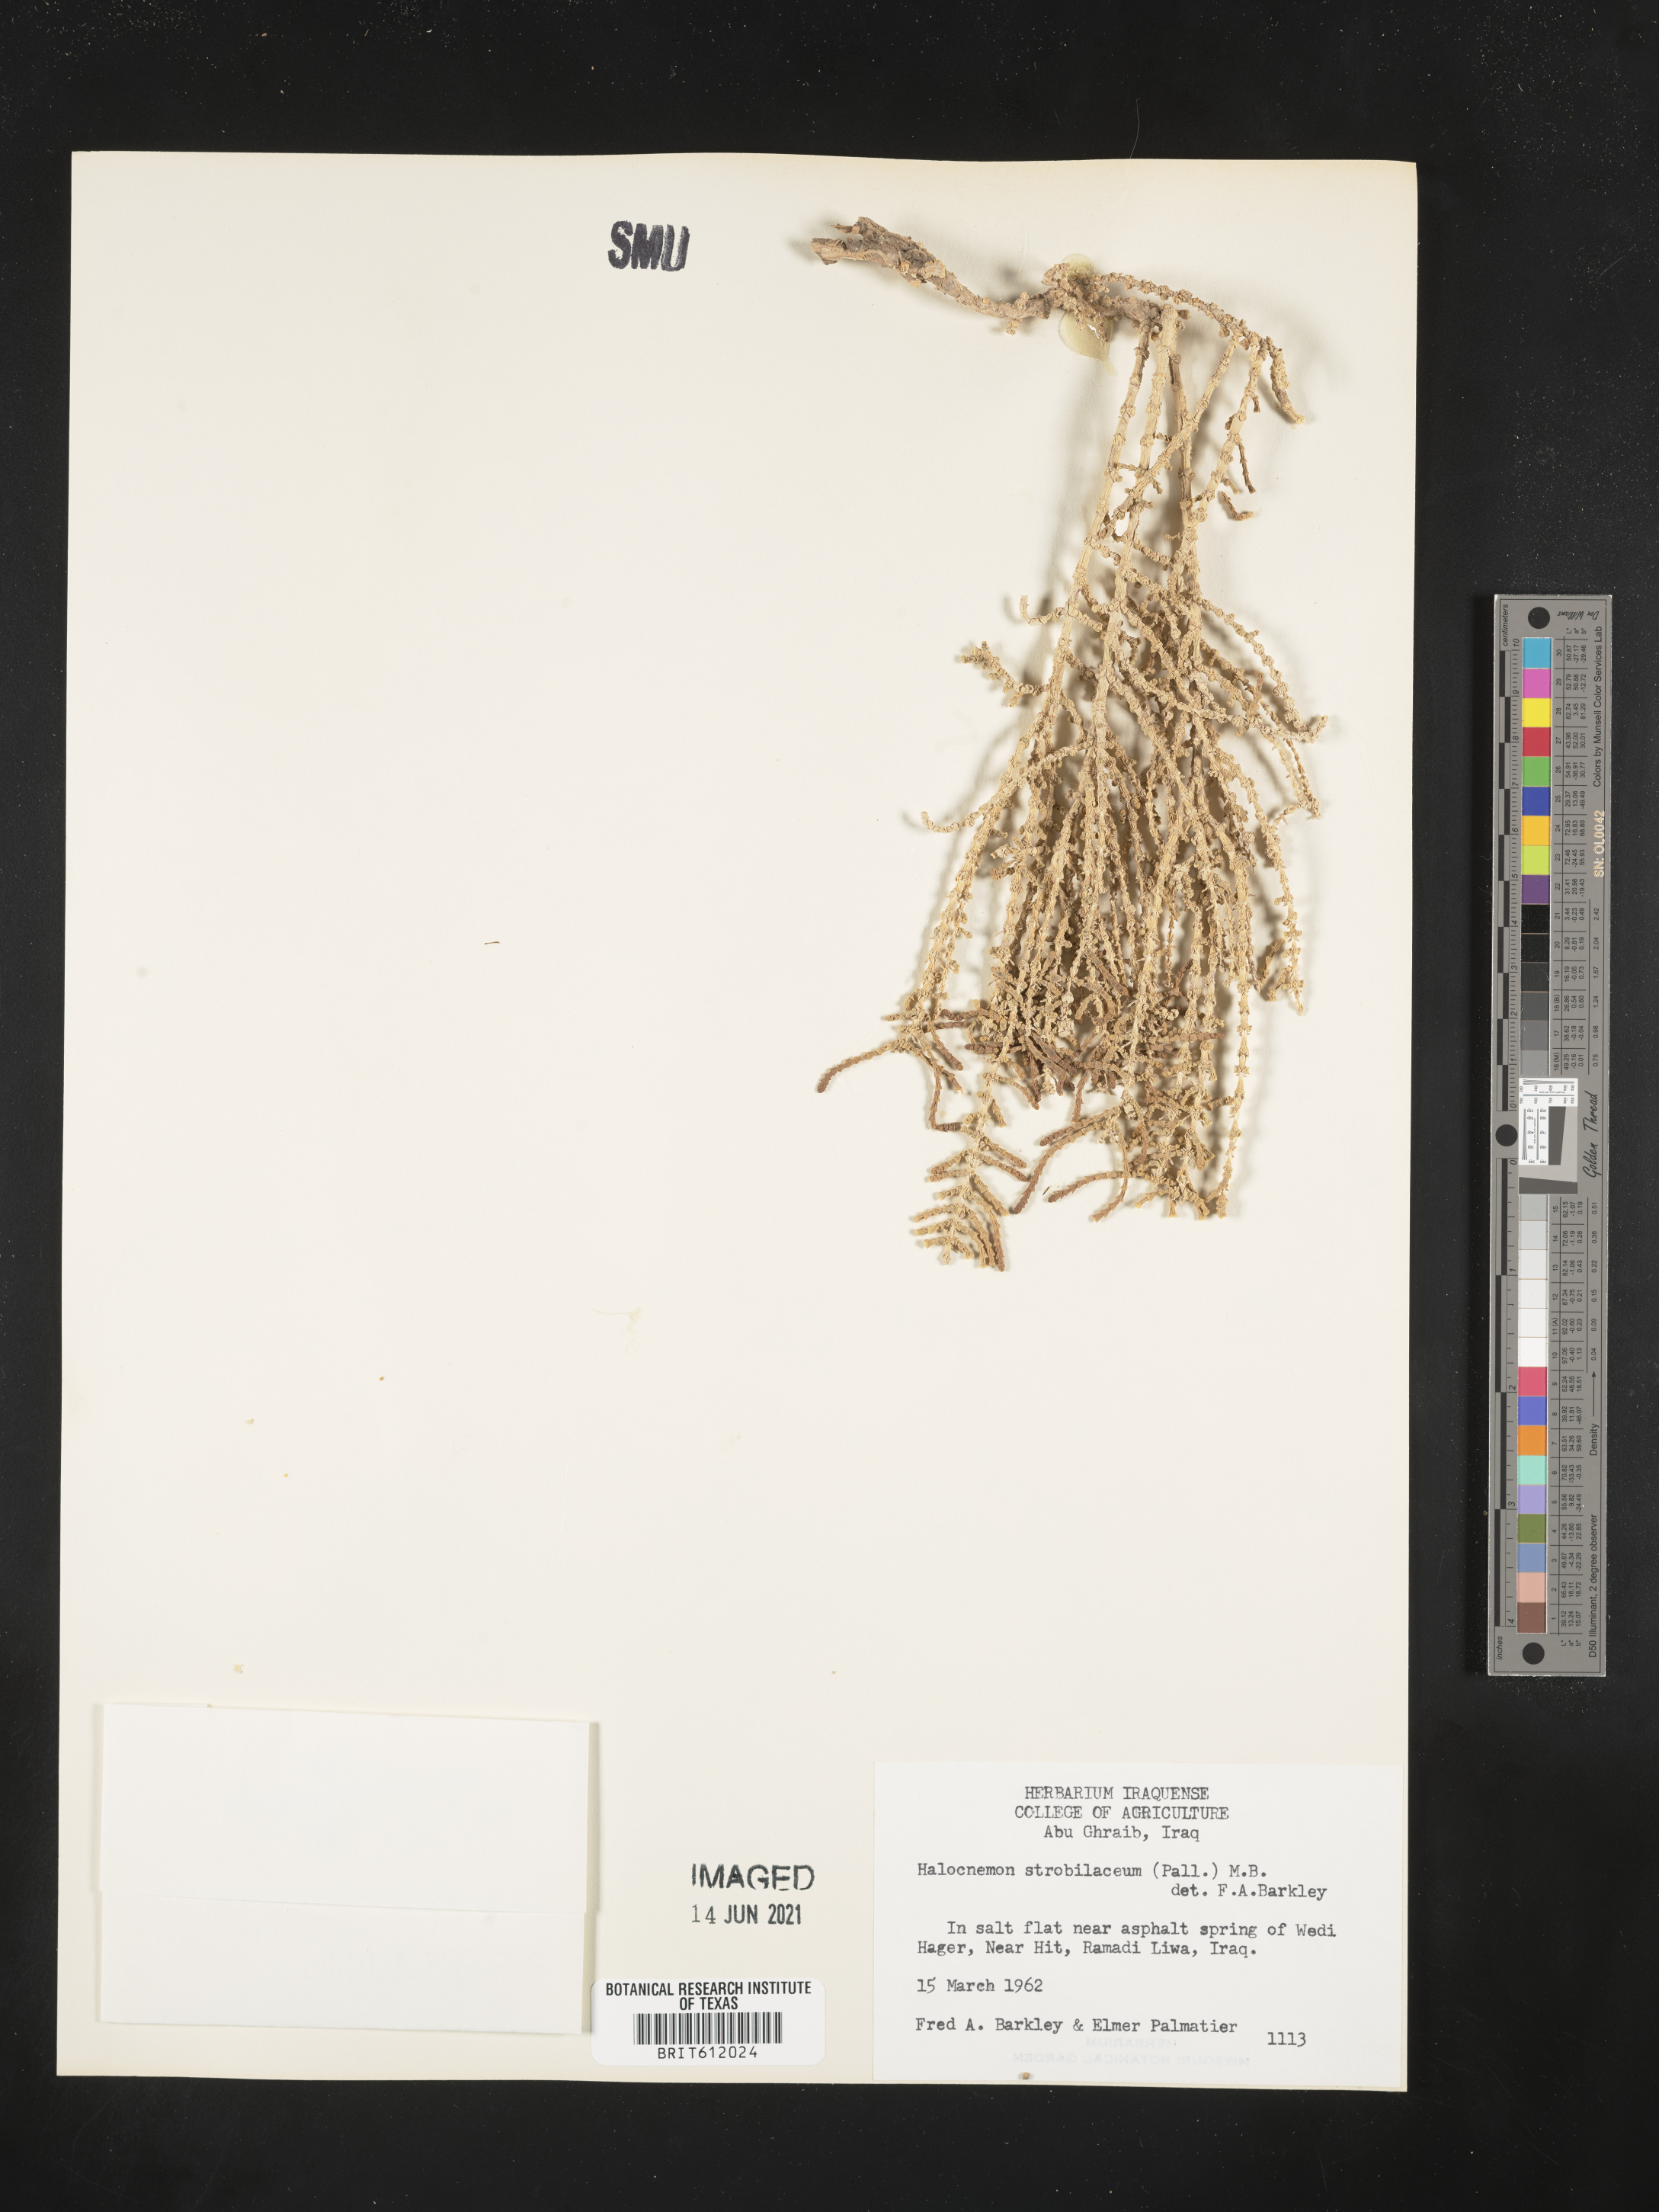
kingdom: Plantae
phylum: Tracheophyta
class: Magnoliopsida
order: Caryophyllales
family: Amaranthaceae
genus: Halocnemum
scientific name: Halocnemum strobilaceum
